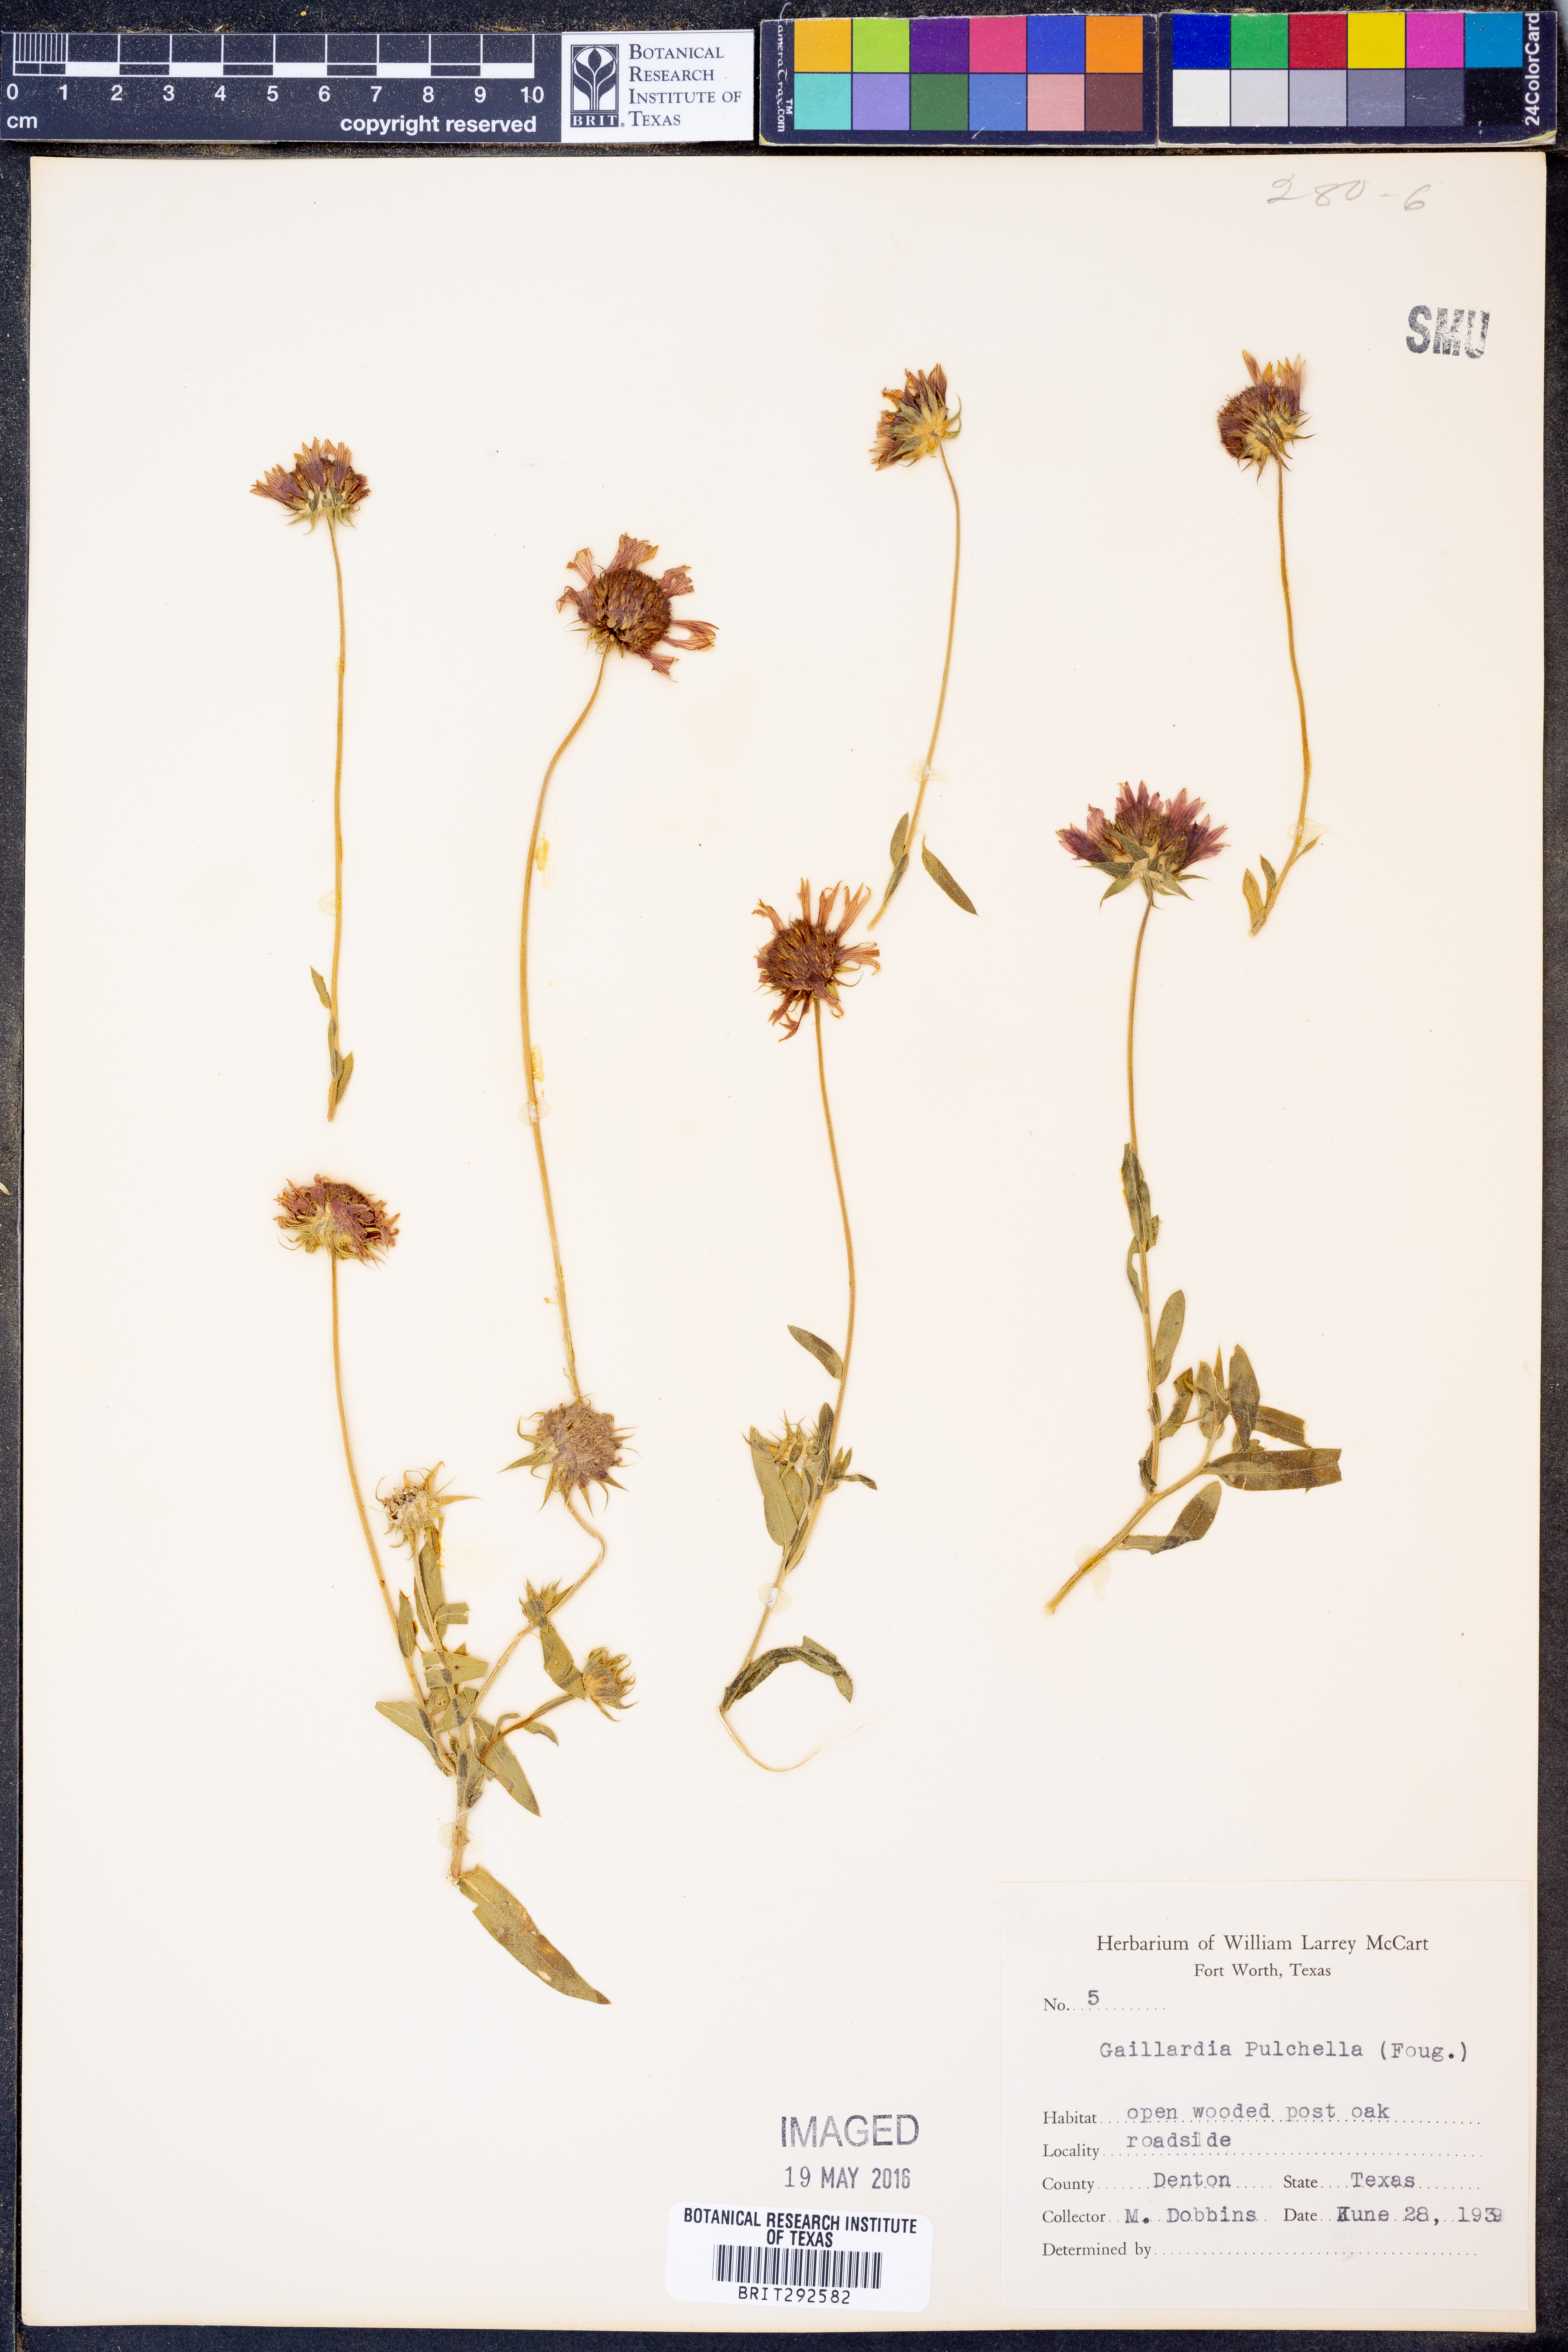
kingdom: Plantae
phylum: Tracheophyta
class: Magnoliopsida
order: Asterales
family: Asteraceae
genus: Gaillardia
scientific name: Gaillardia pulchella
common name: Firewheel
